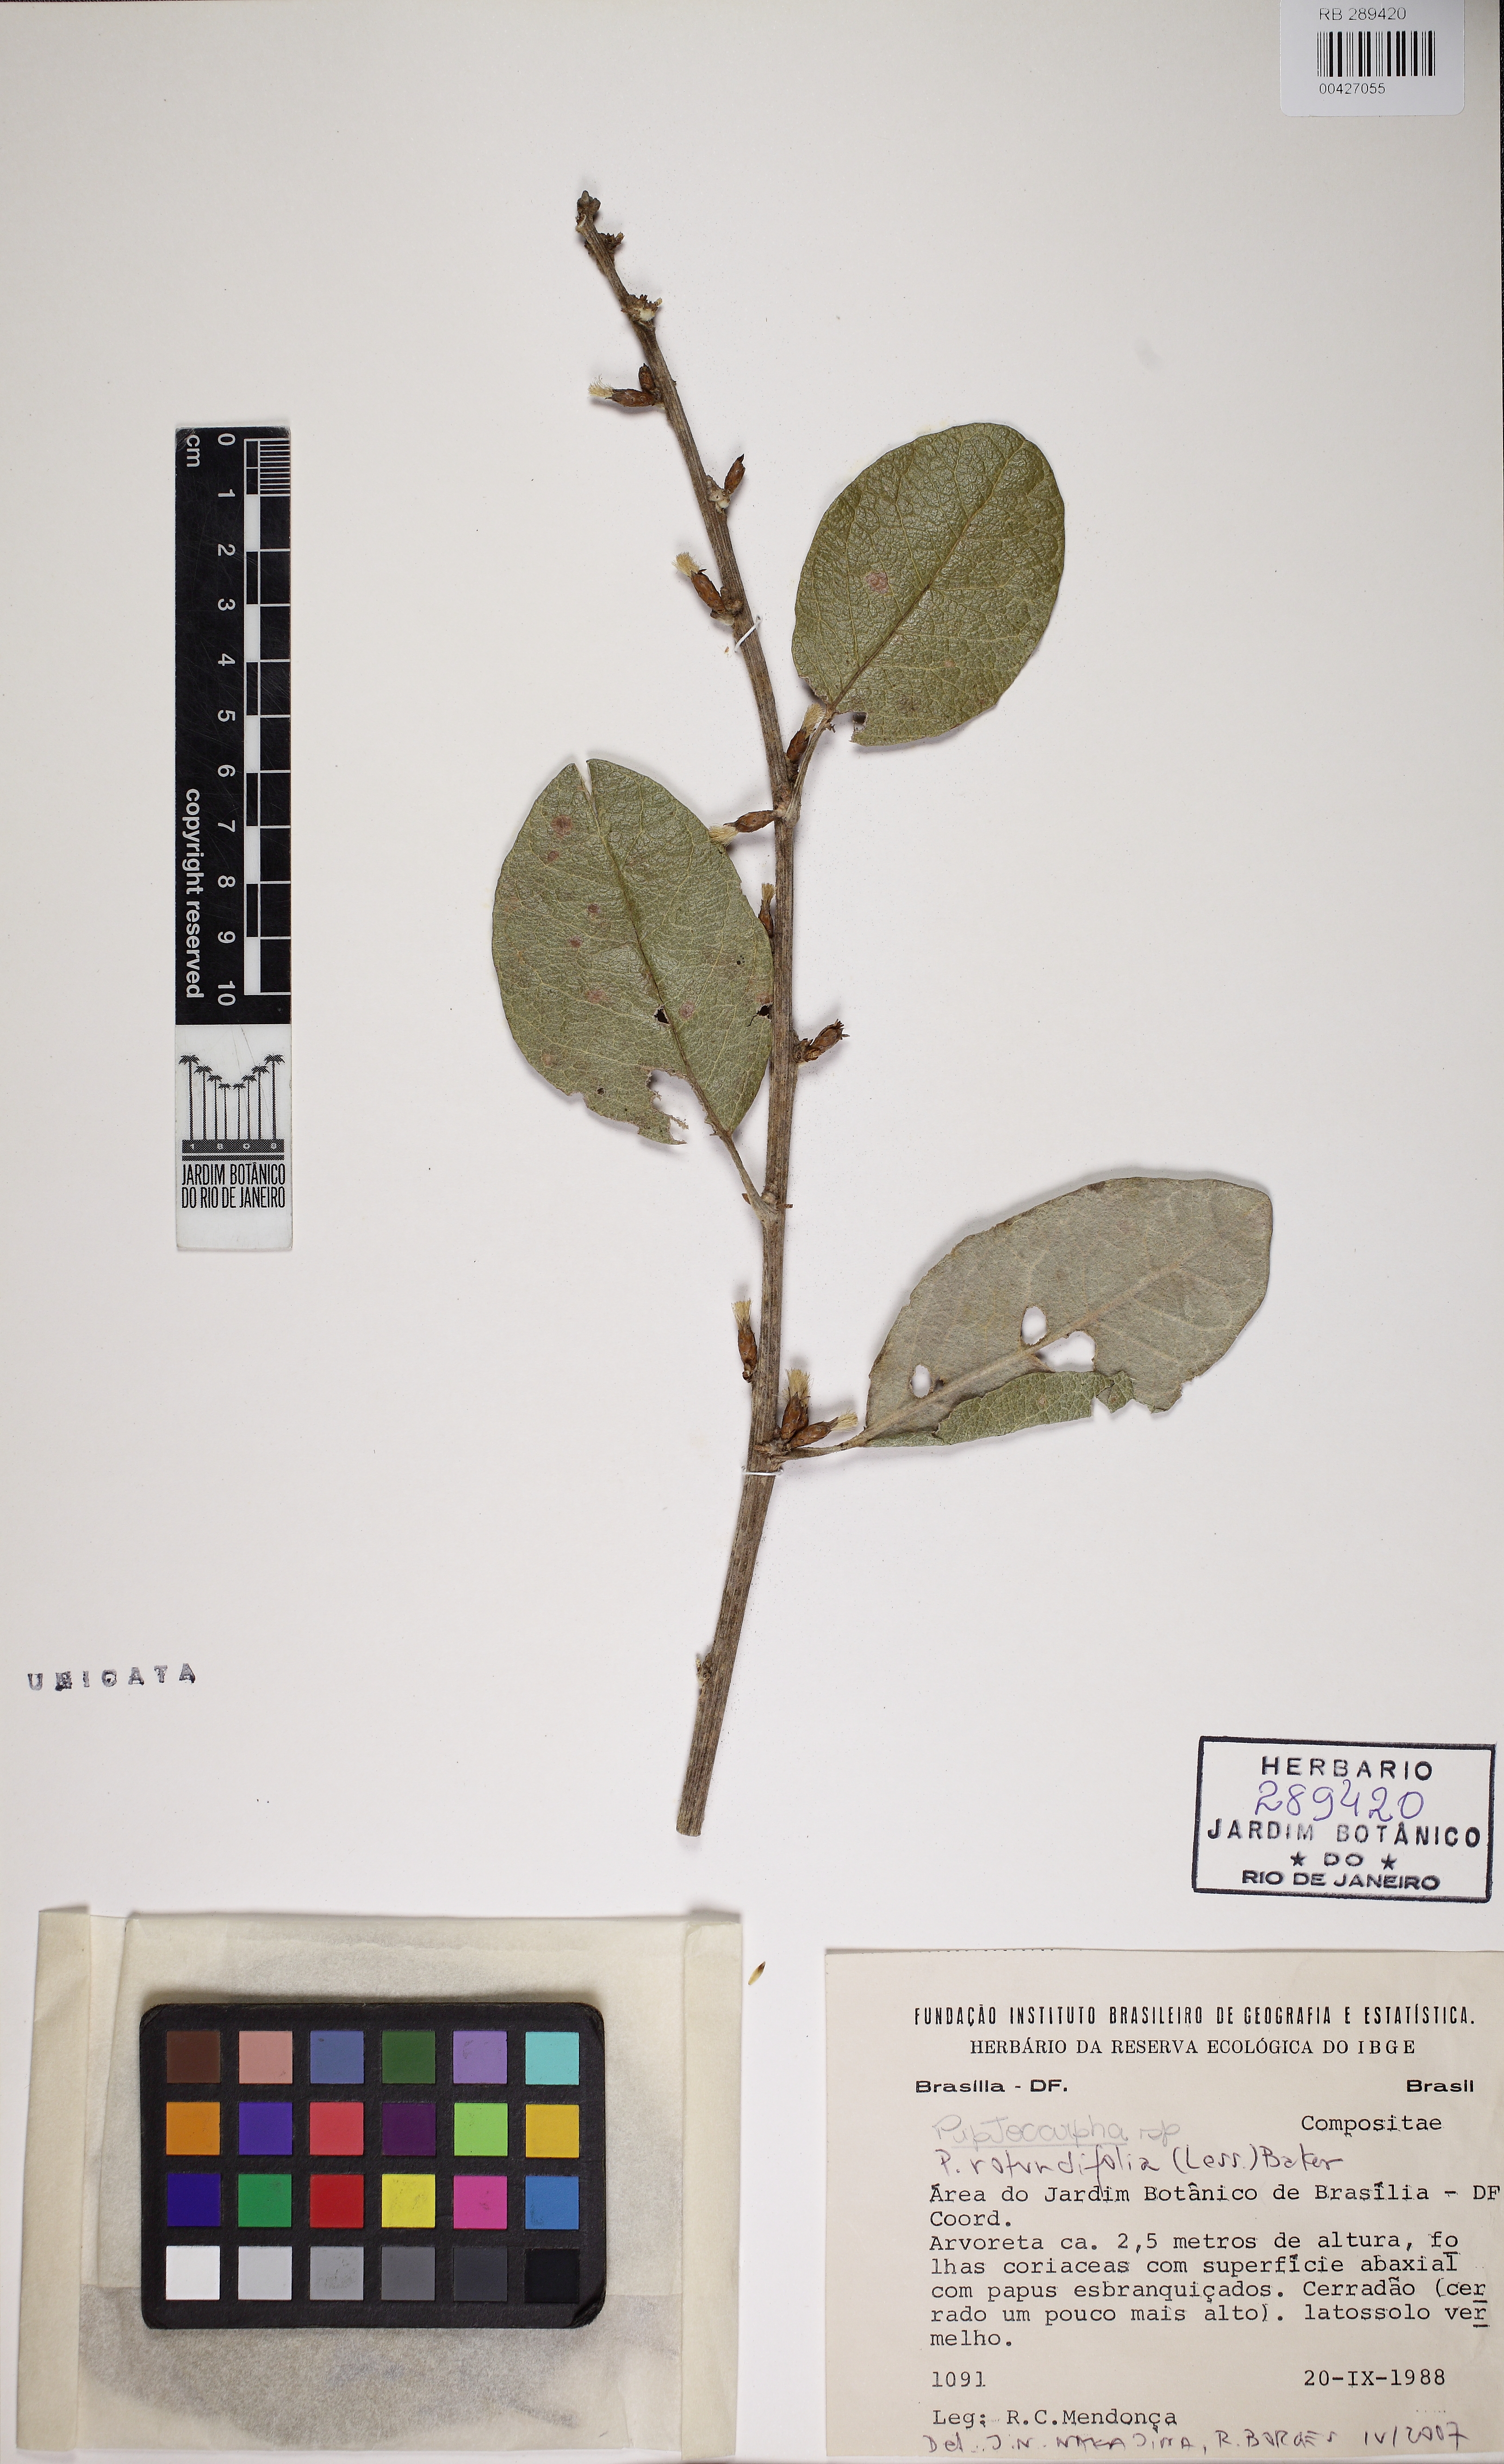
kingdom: Plantae
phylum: Tracheophyta
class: Magnoliopsida
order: Asterales
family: Asteraceae
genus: Piptocarpha
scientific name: Piptocarpha rotundifolia
